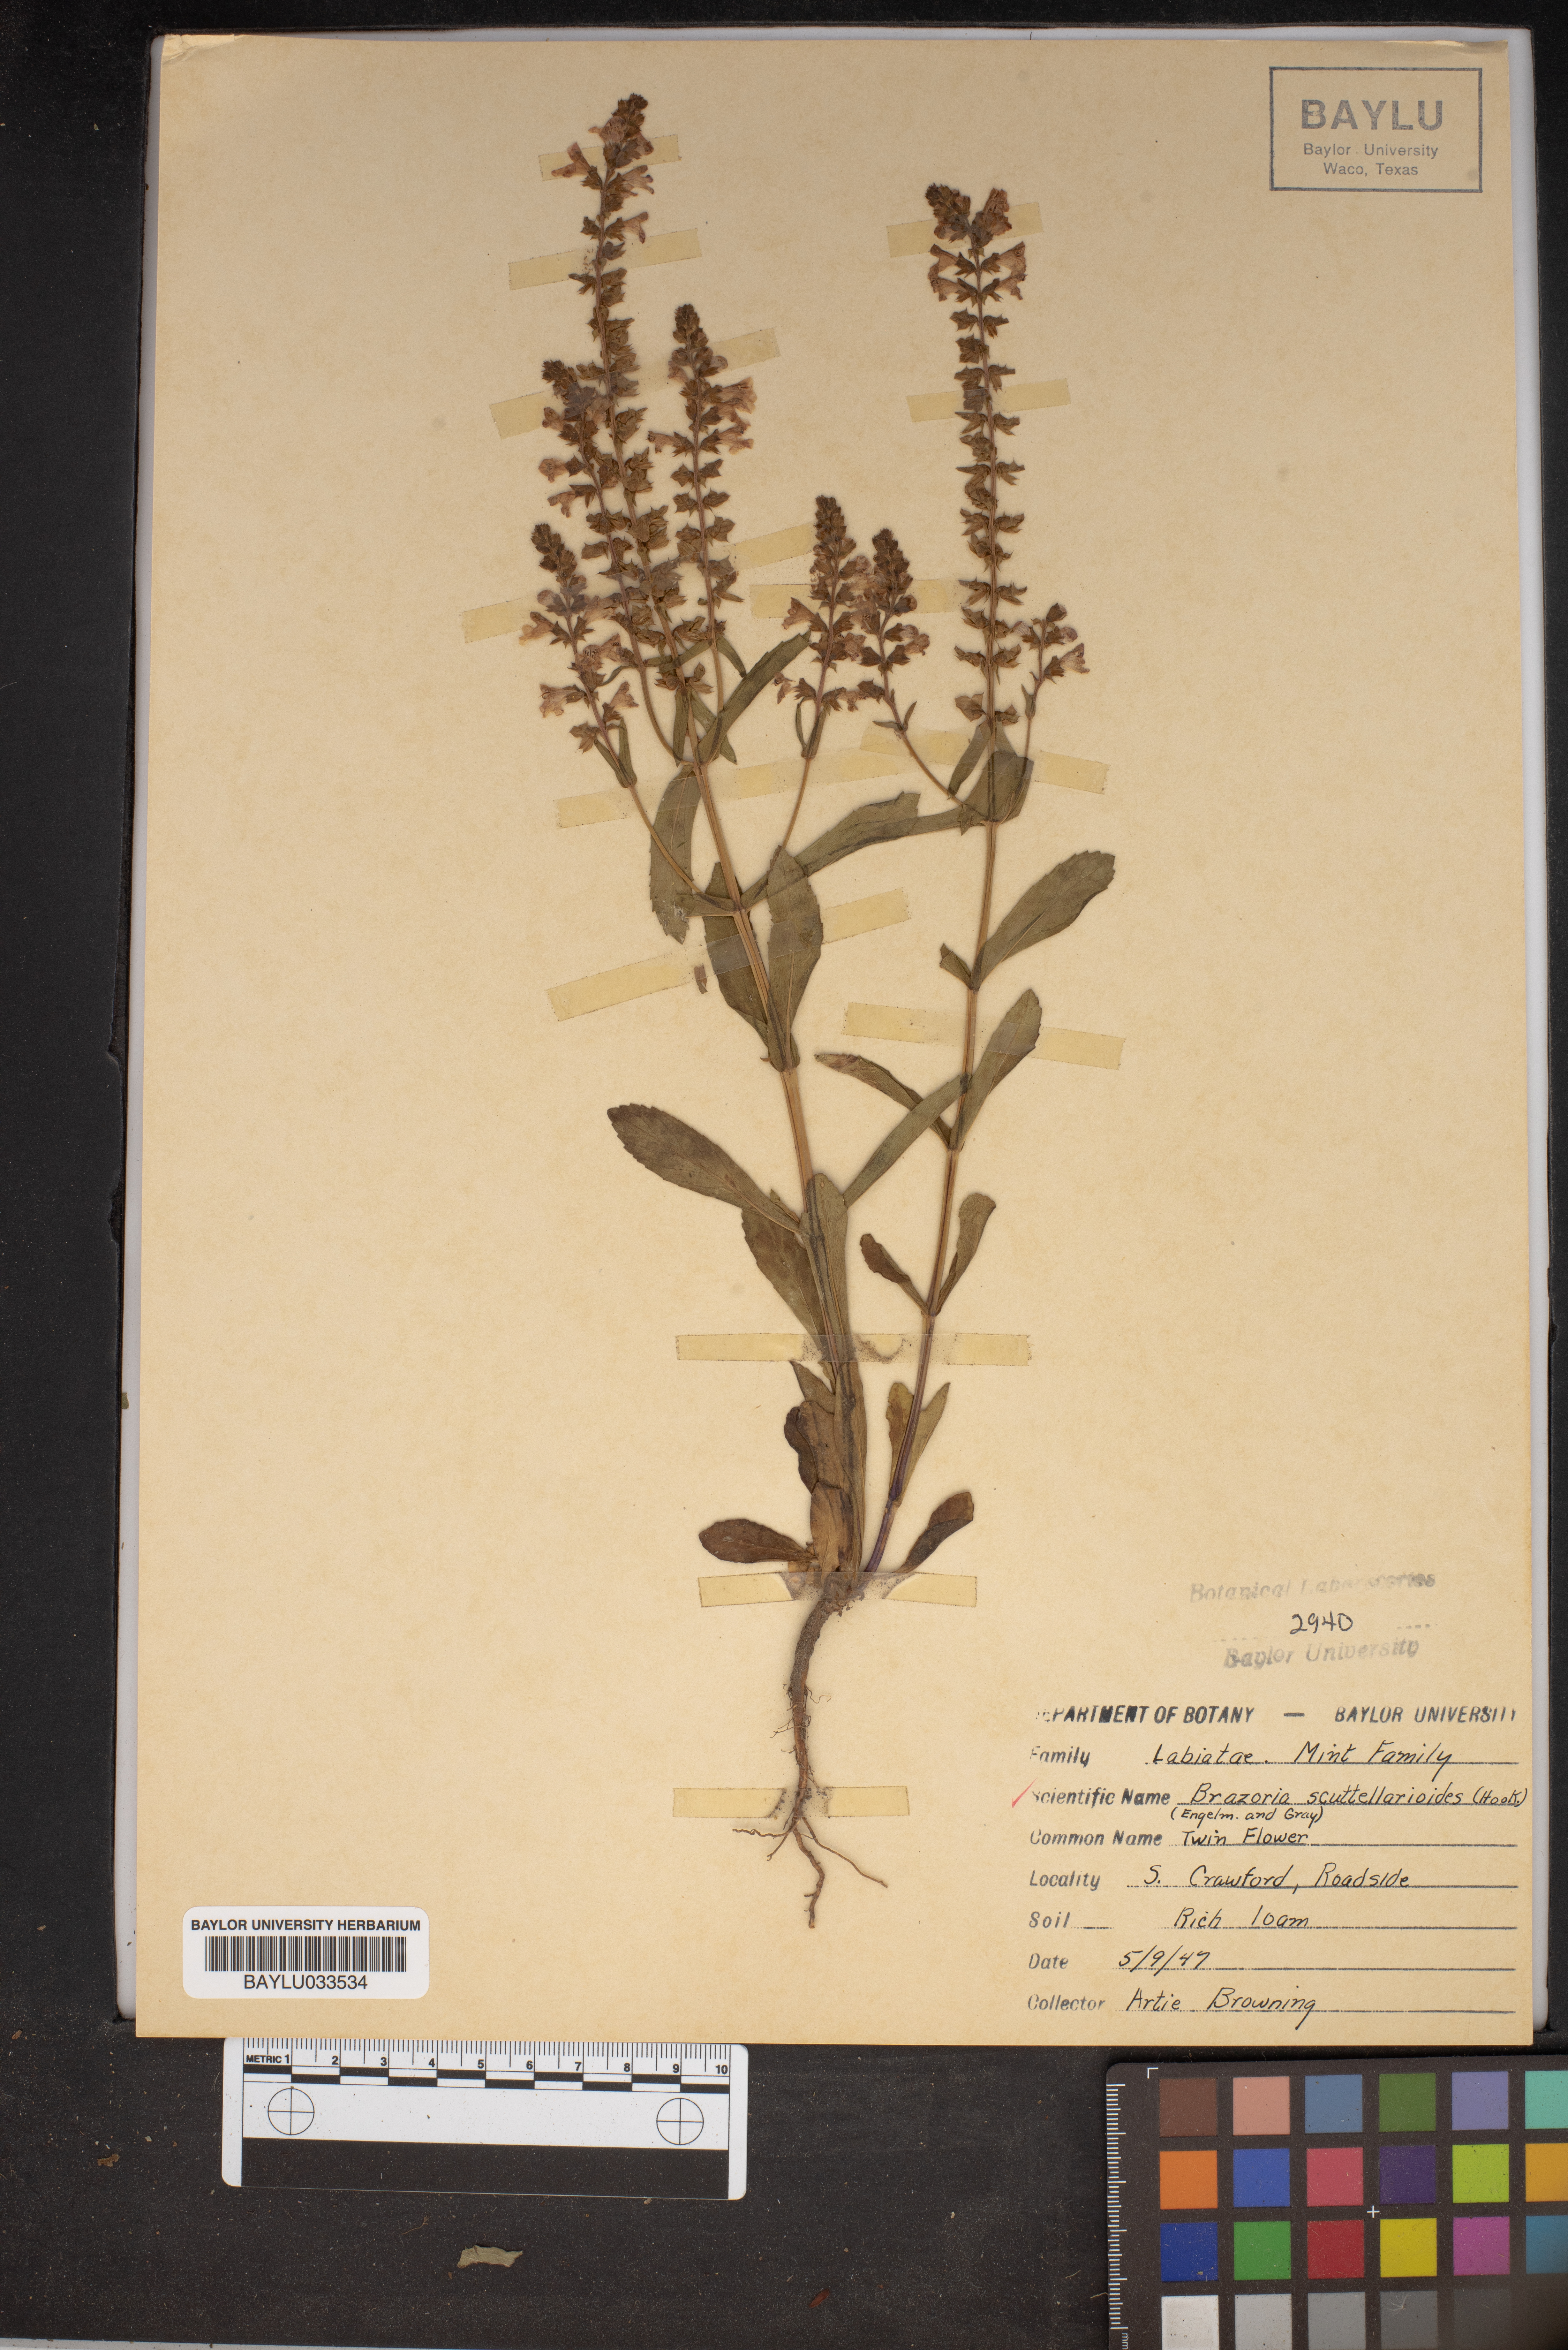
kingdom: Plantae
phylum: Tracheophyta
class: Magnoliopsida
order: Lamiales
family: Lamiaceae
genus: Warnockia
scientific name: Warnockia scutellarioides
